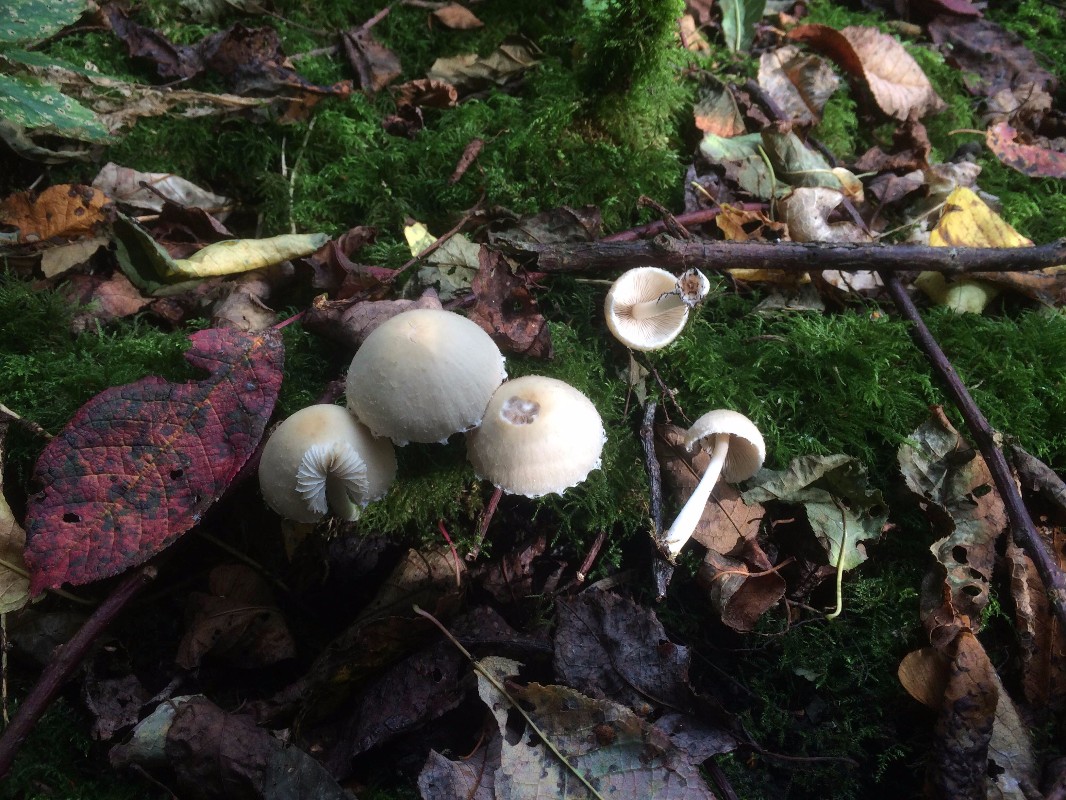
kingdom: Fungi
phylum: Basidiomycota
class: Agaricomycetes
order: Agaricales
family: Psathyrellaceae
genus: Candolleomyces
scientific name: Candolleomyces candolleanus
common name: Candolles mørkhat
